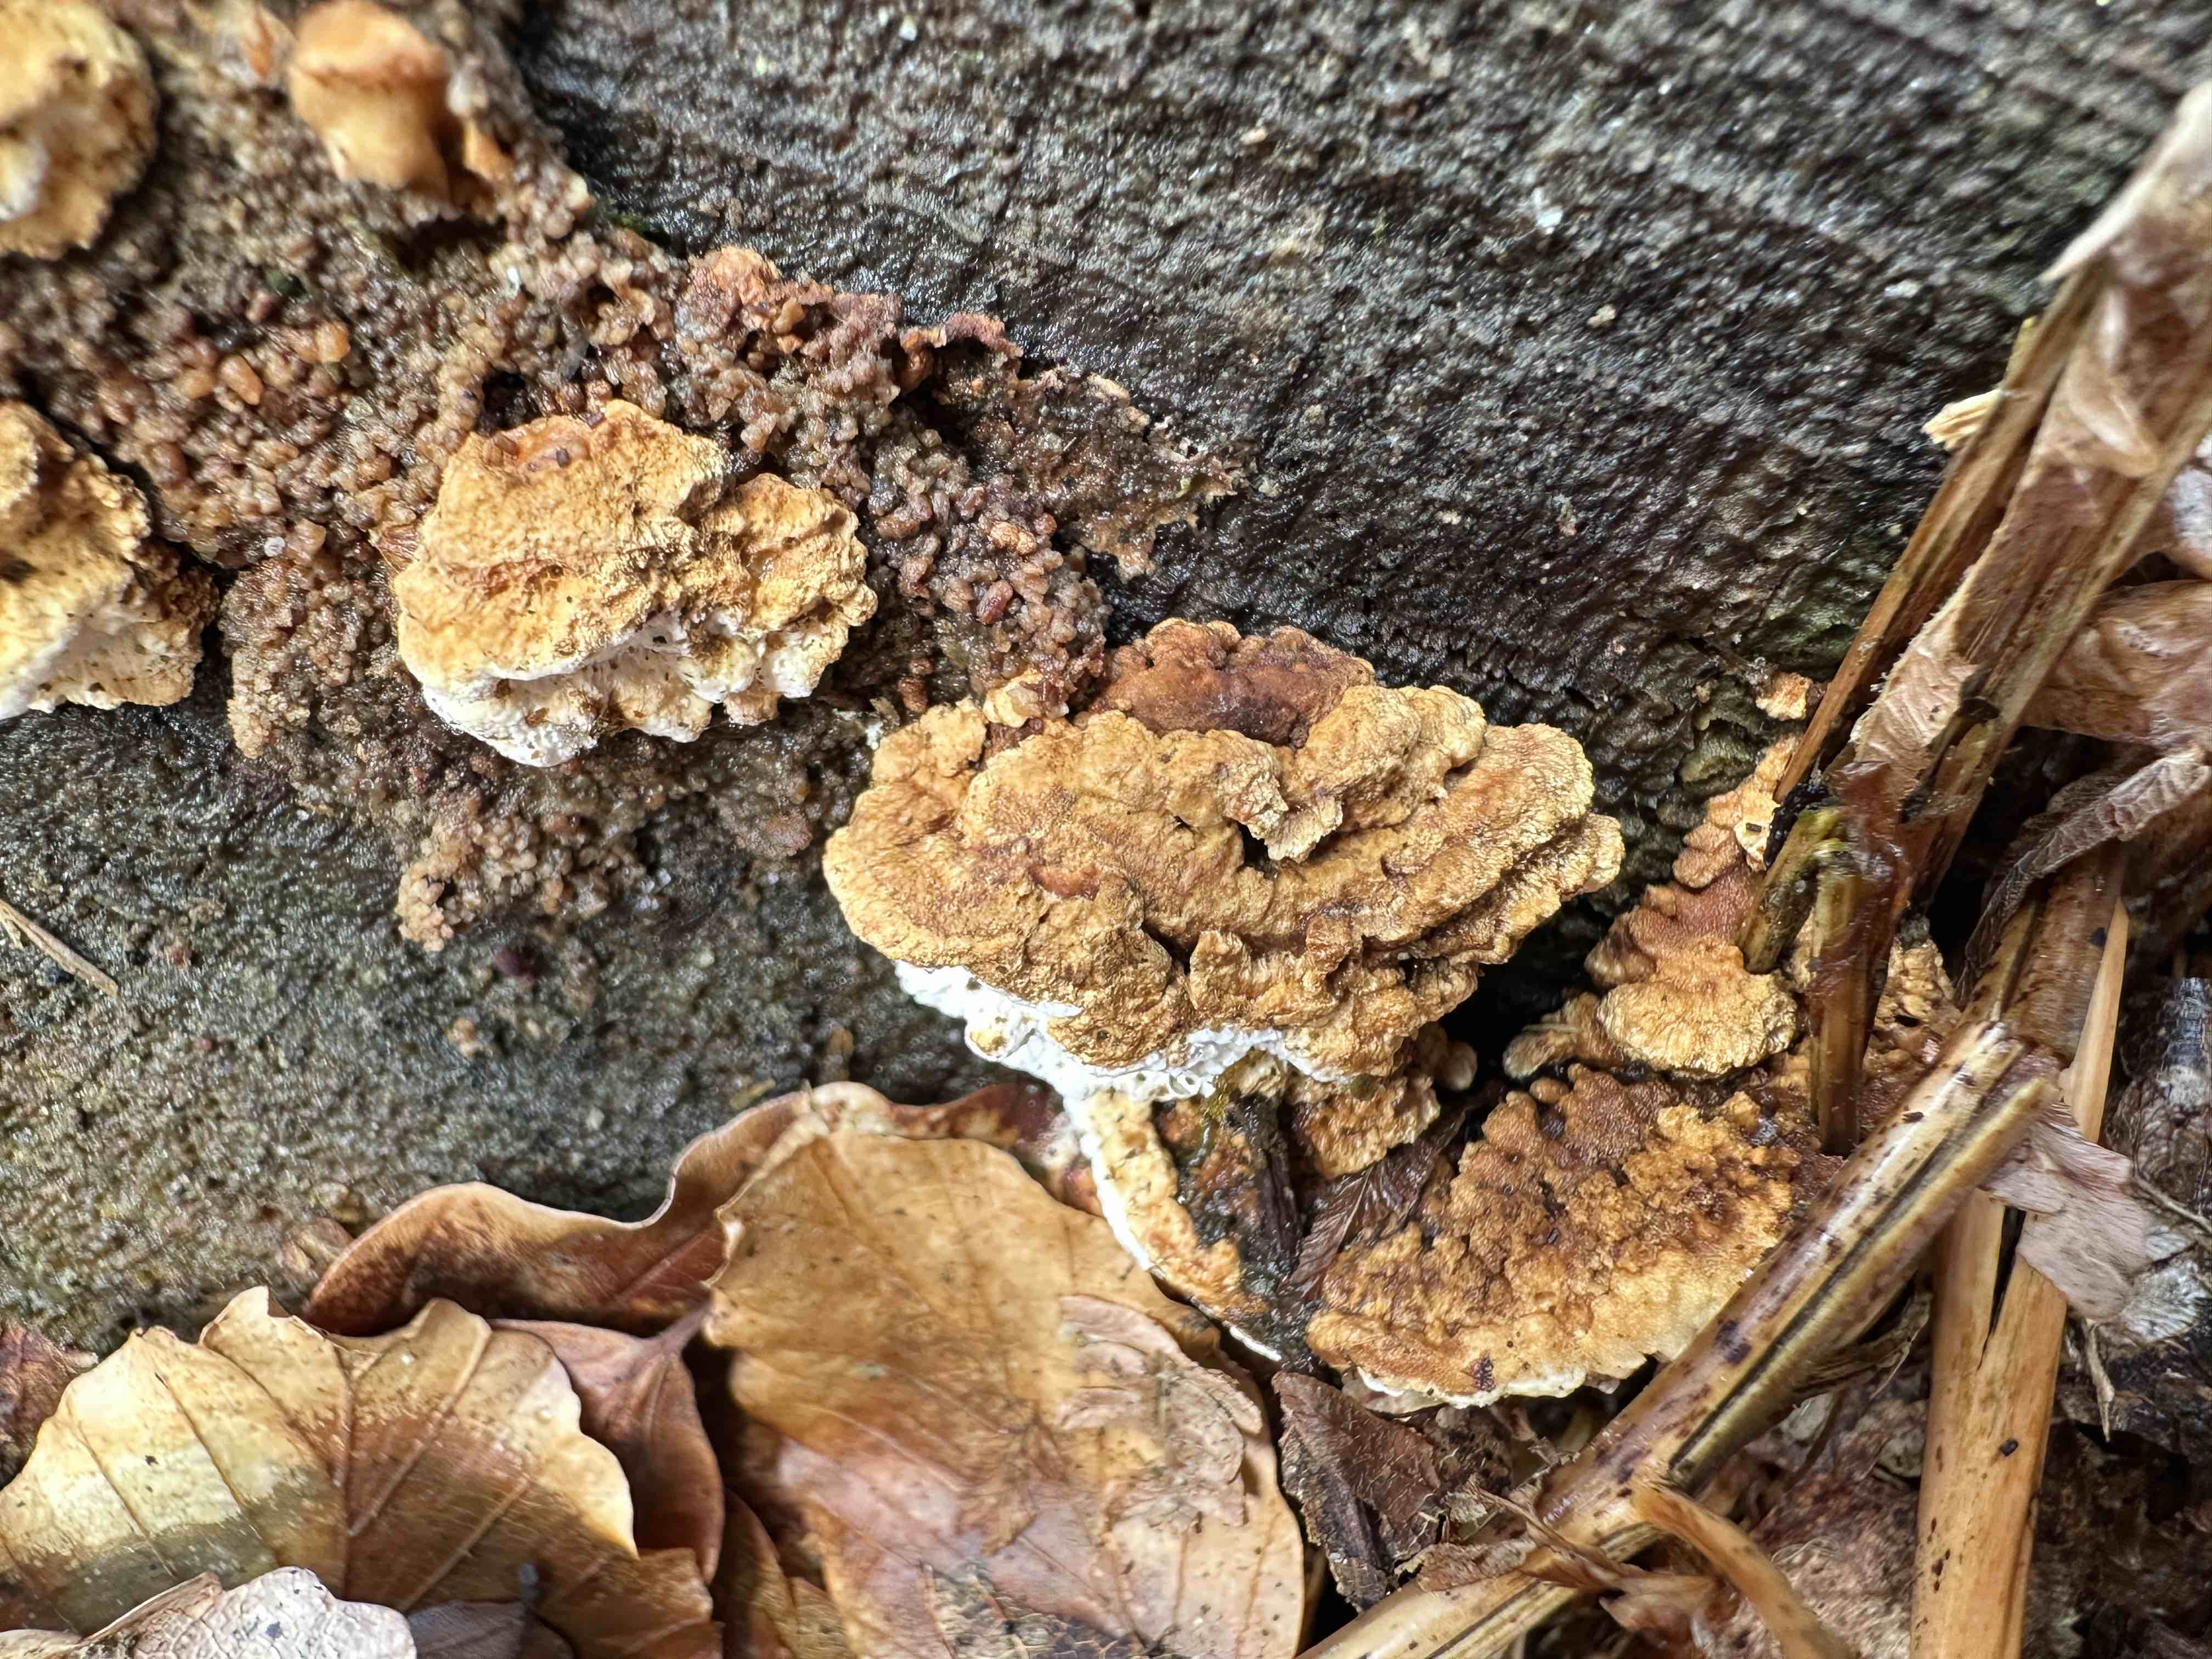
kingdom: Fungi
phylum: Basidiomycota
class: Agaricomycetes
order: Polyporales
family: Fomitopsidaceae
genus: Neoantrodia
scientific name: Neoantrodia serialis
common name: række-sejporesvamp
